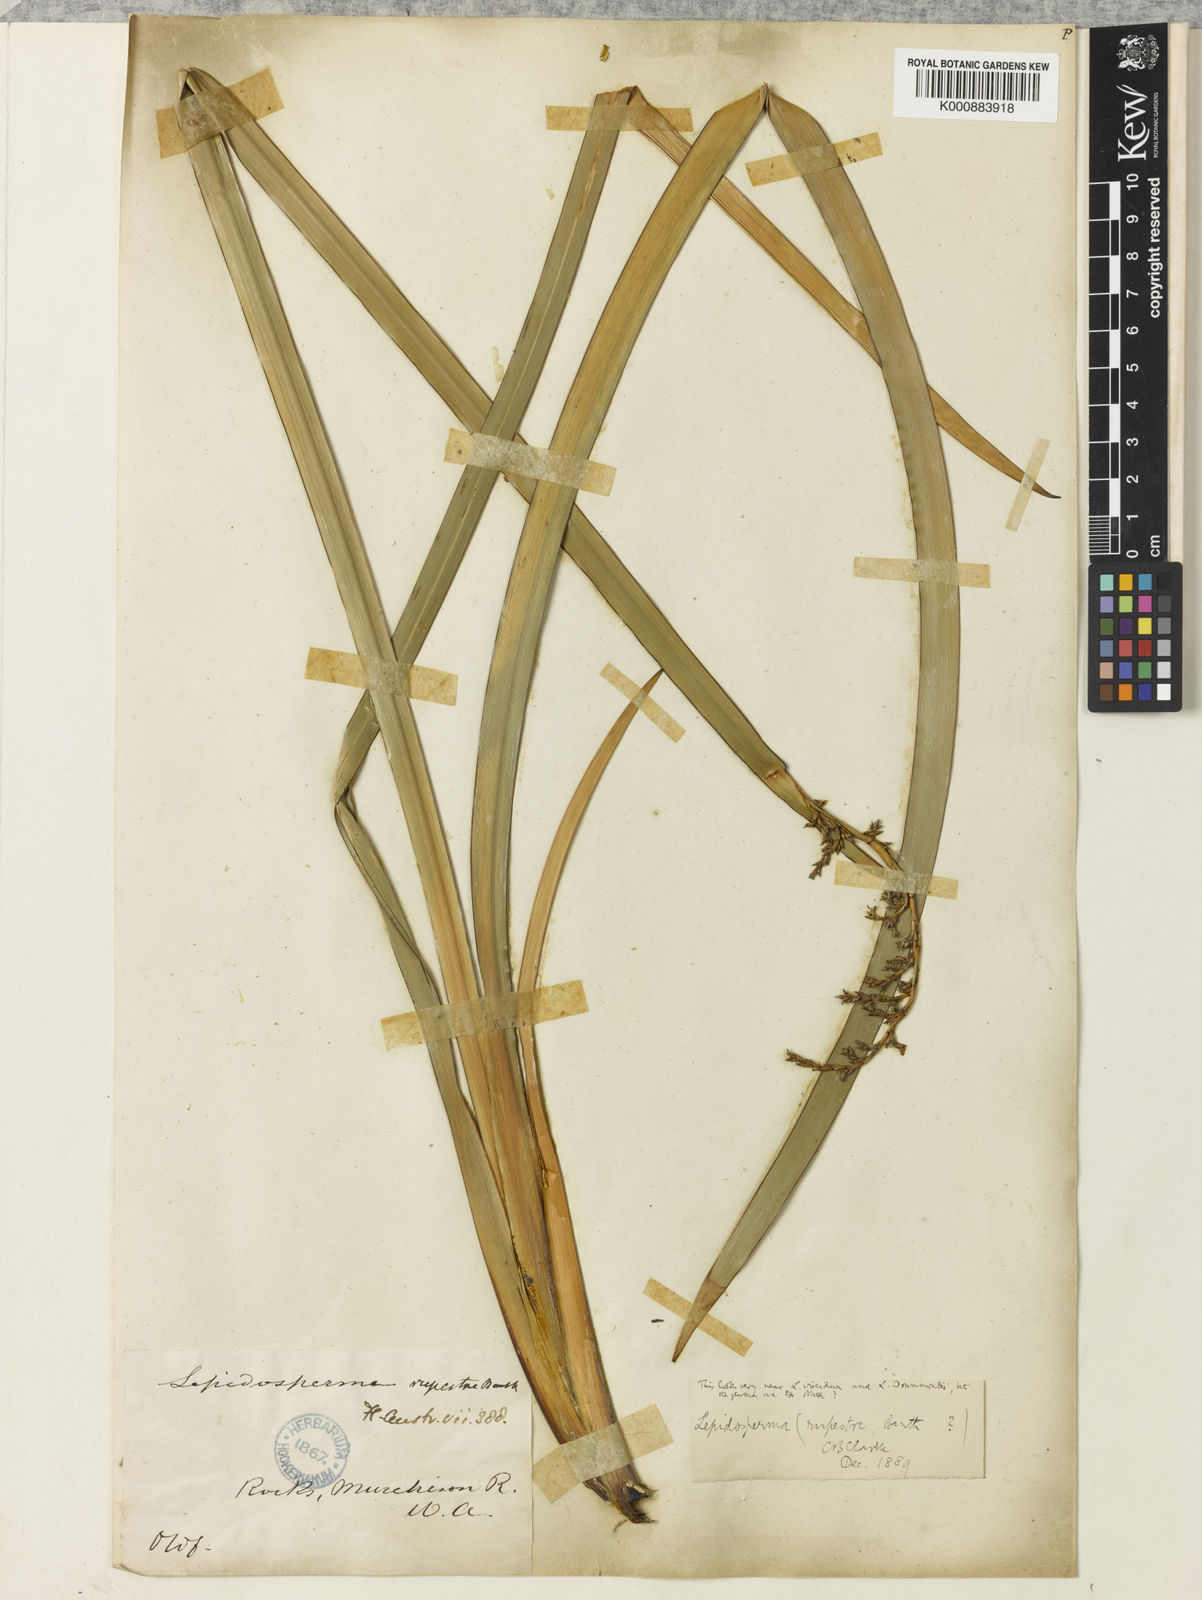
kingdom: Plantae
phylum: Tracheophyta
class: Liliopsida
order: Poales
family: Cyperaceae
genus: Lepidosperma
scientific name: Lepidosperma rupestre
